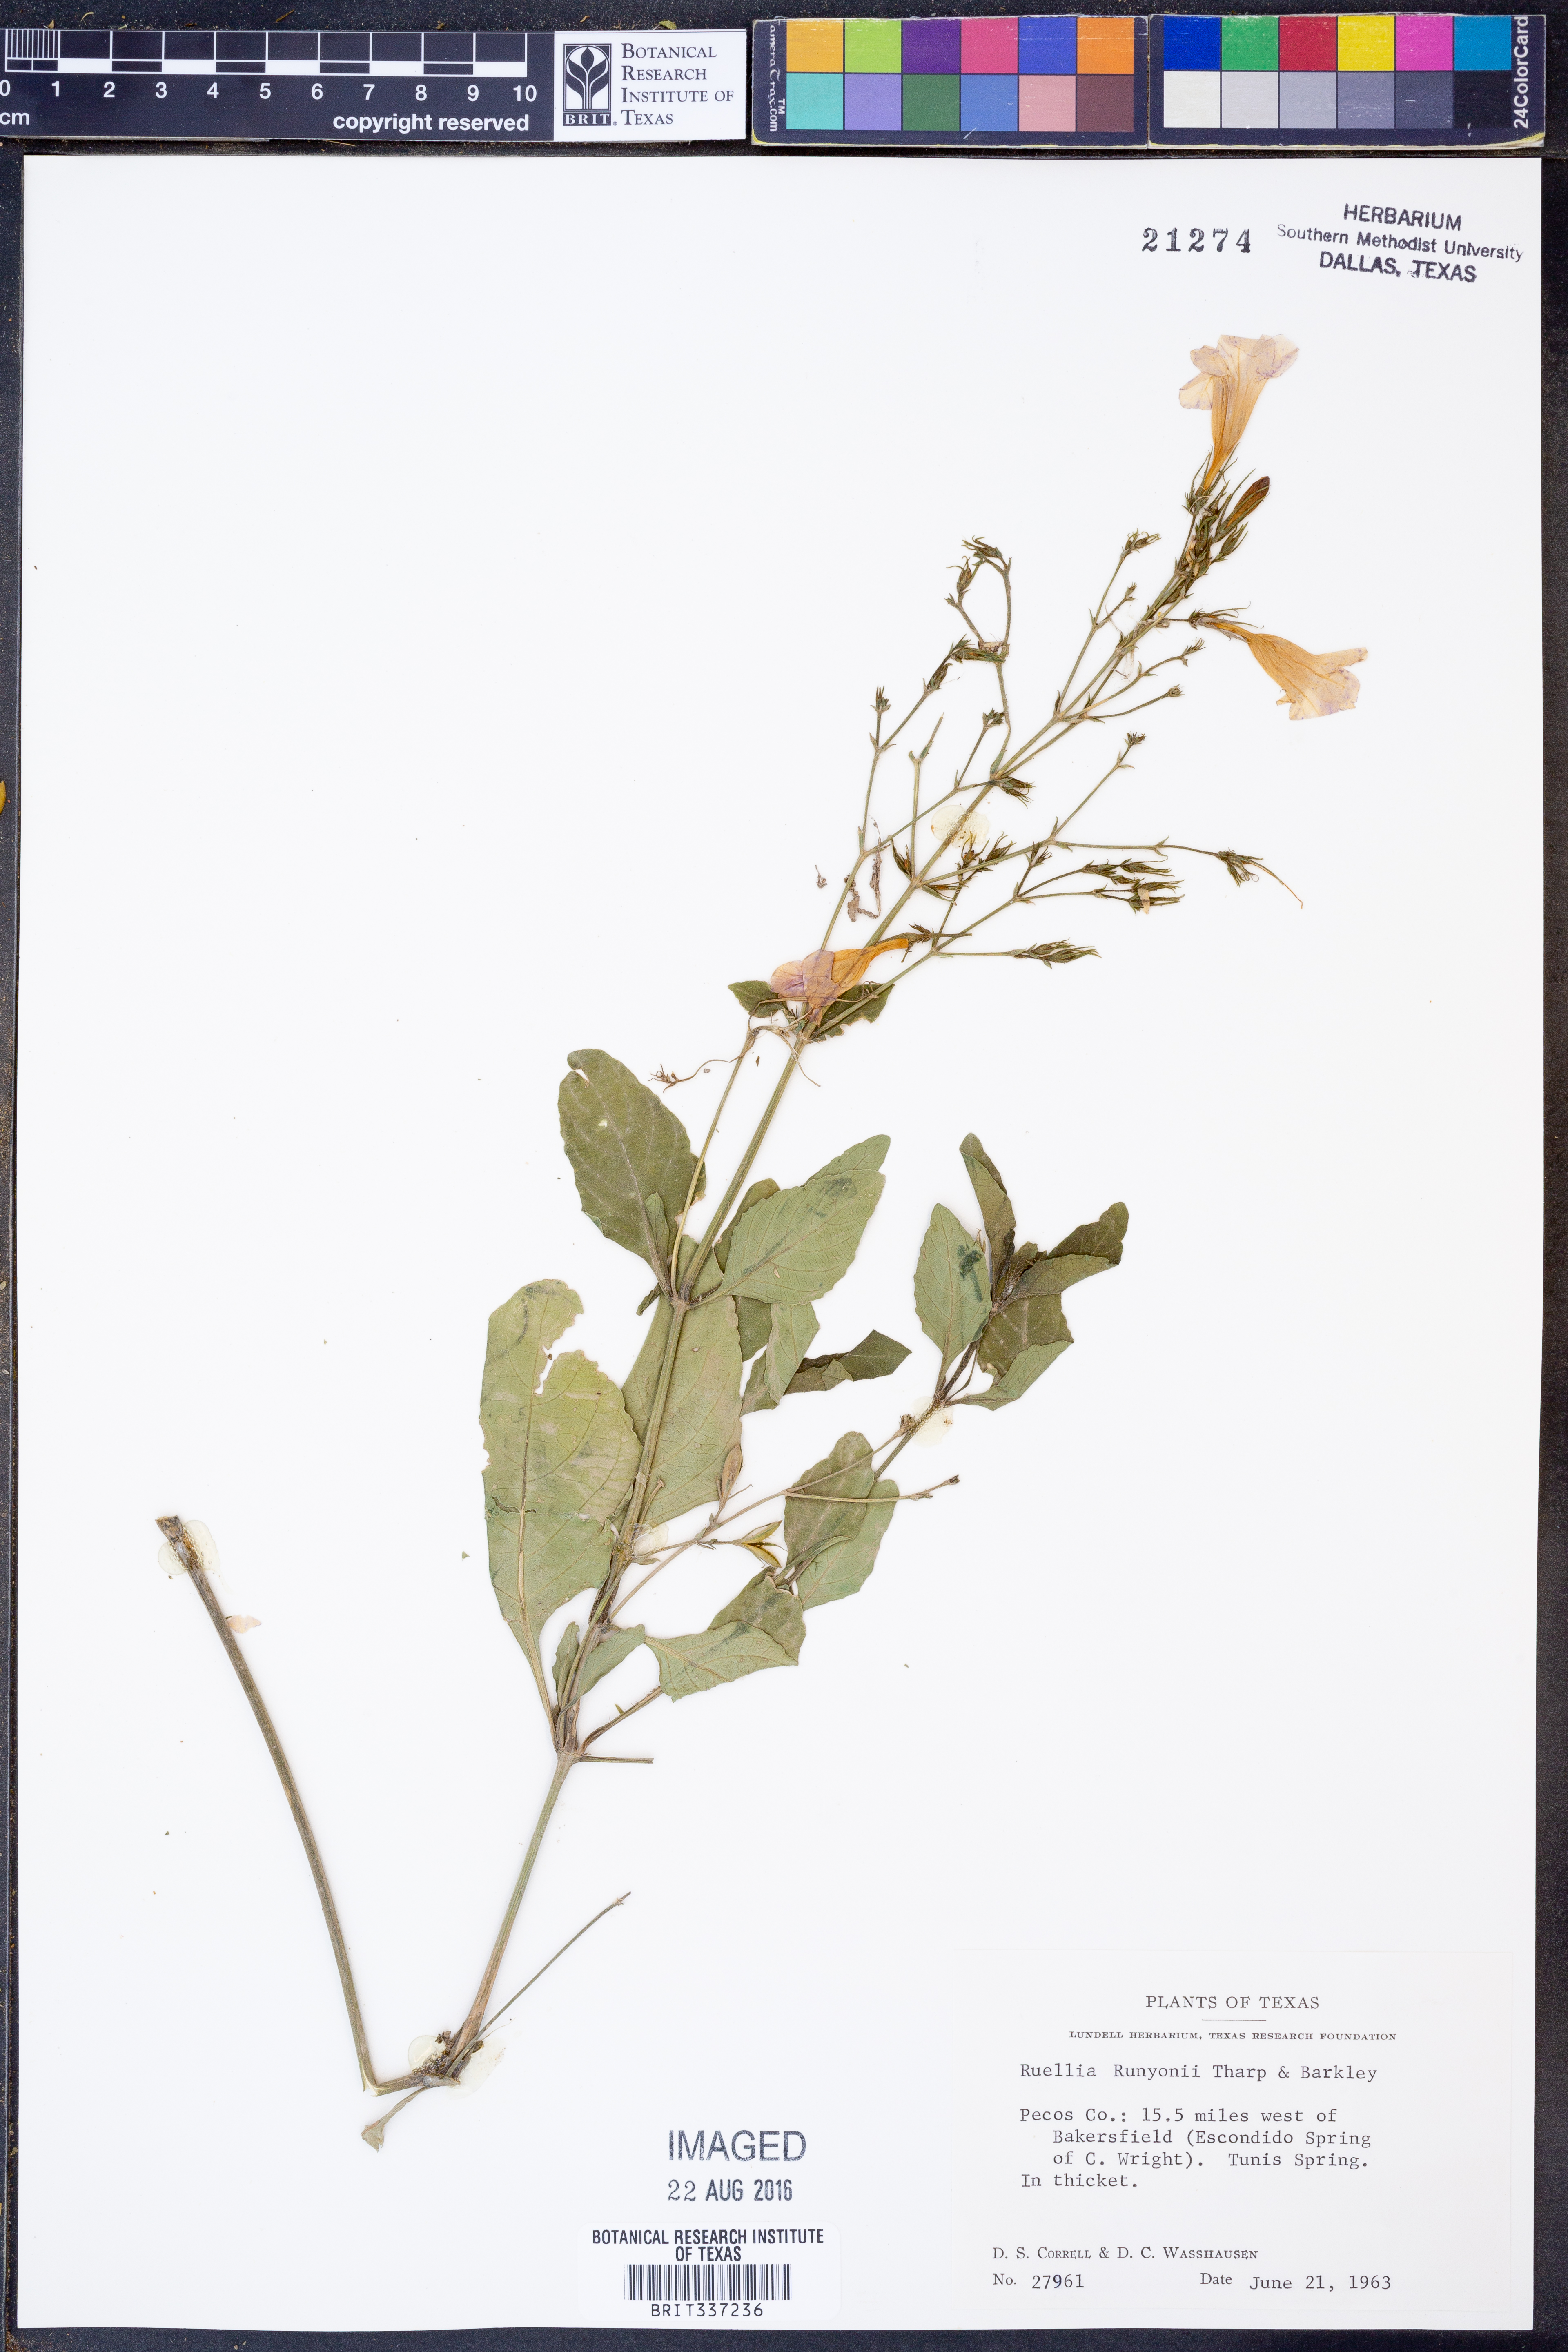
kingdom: Plantae
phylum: Tracheophyta
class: Magnoliopsida
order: Lamiales
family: Acanthaceae
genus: Ruellia
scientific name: Ruellia ciliatiflora
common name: Hairyflower wild petunia
